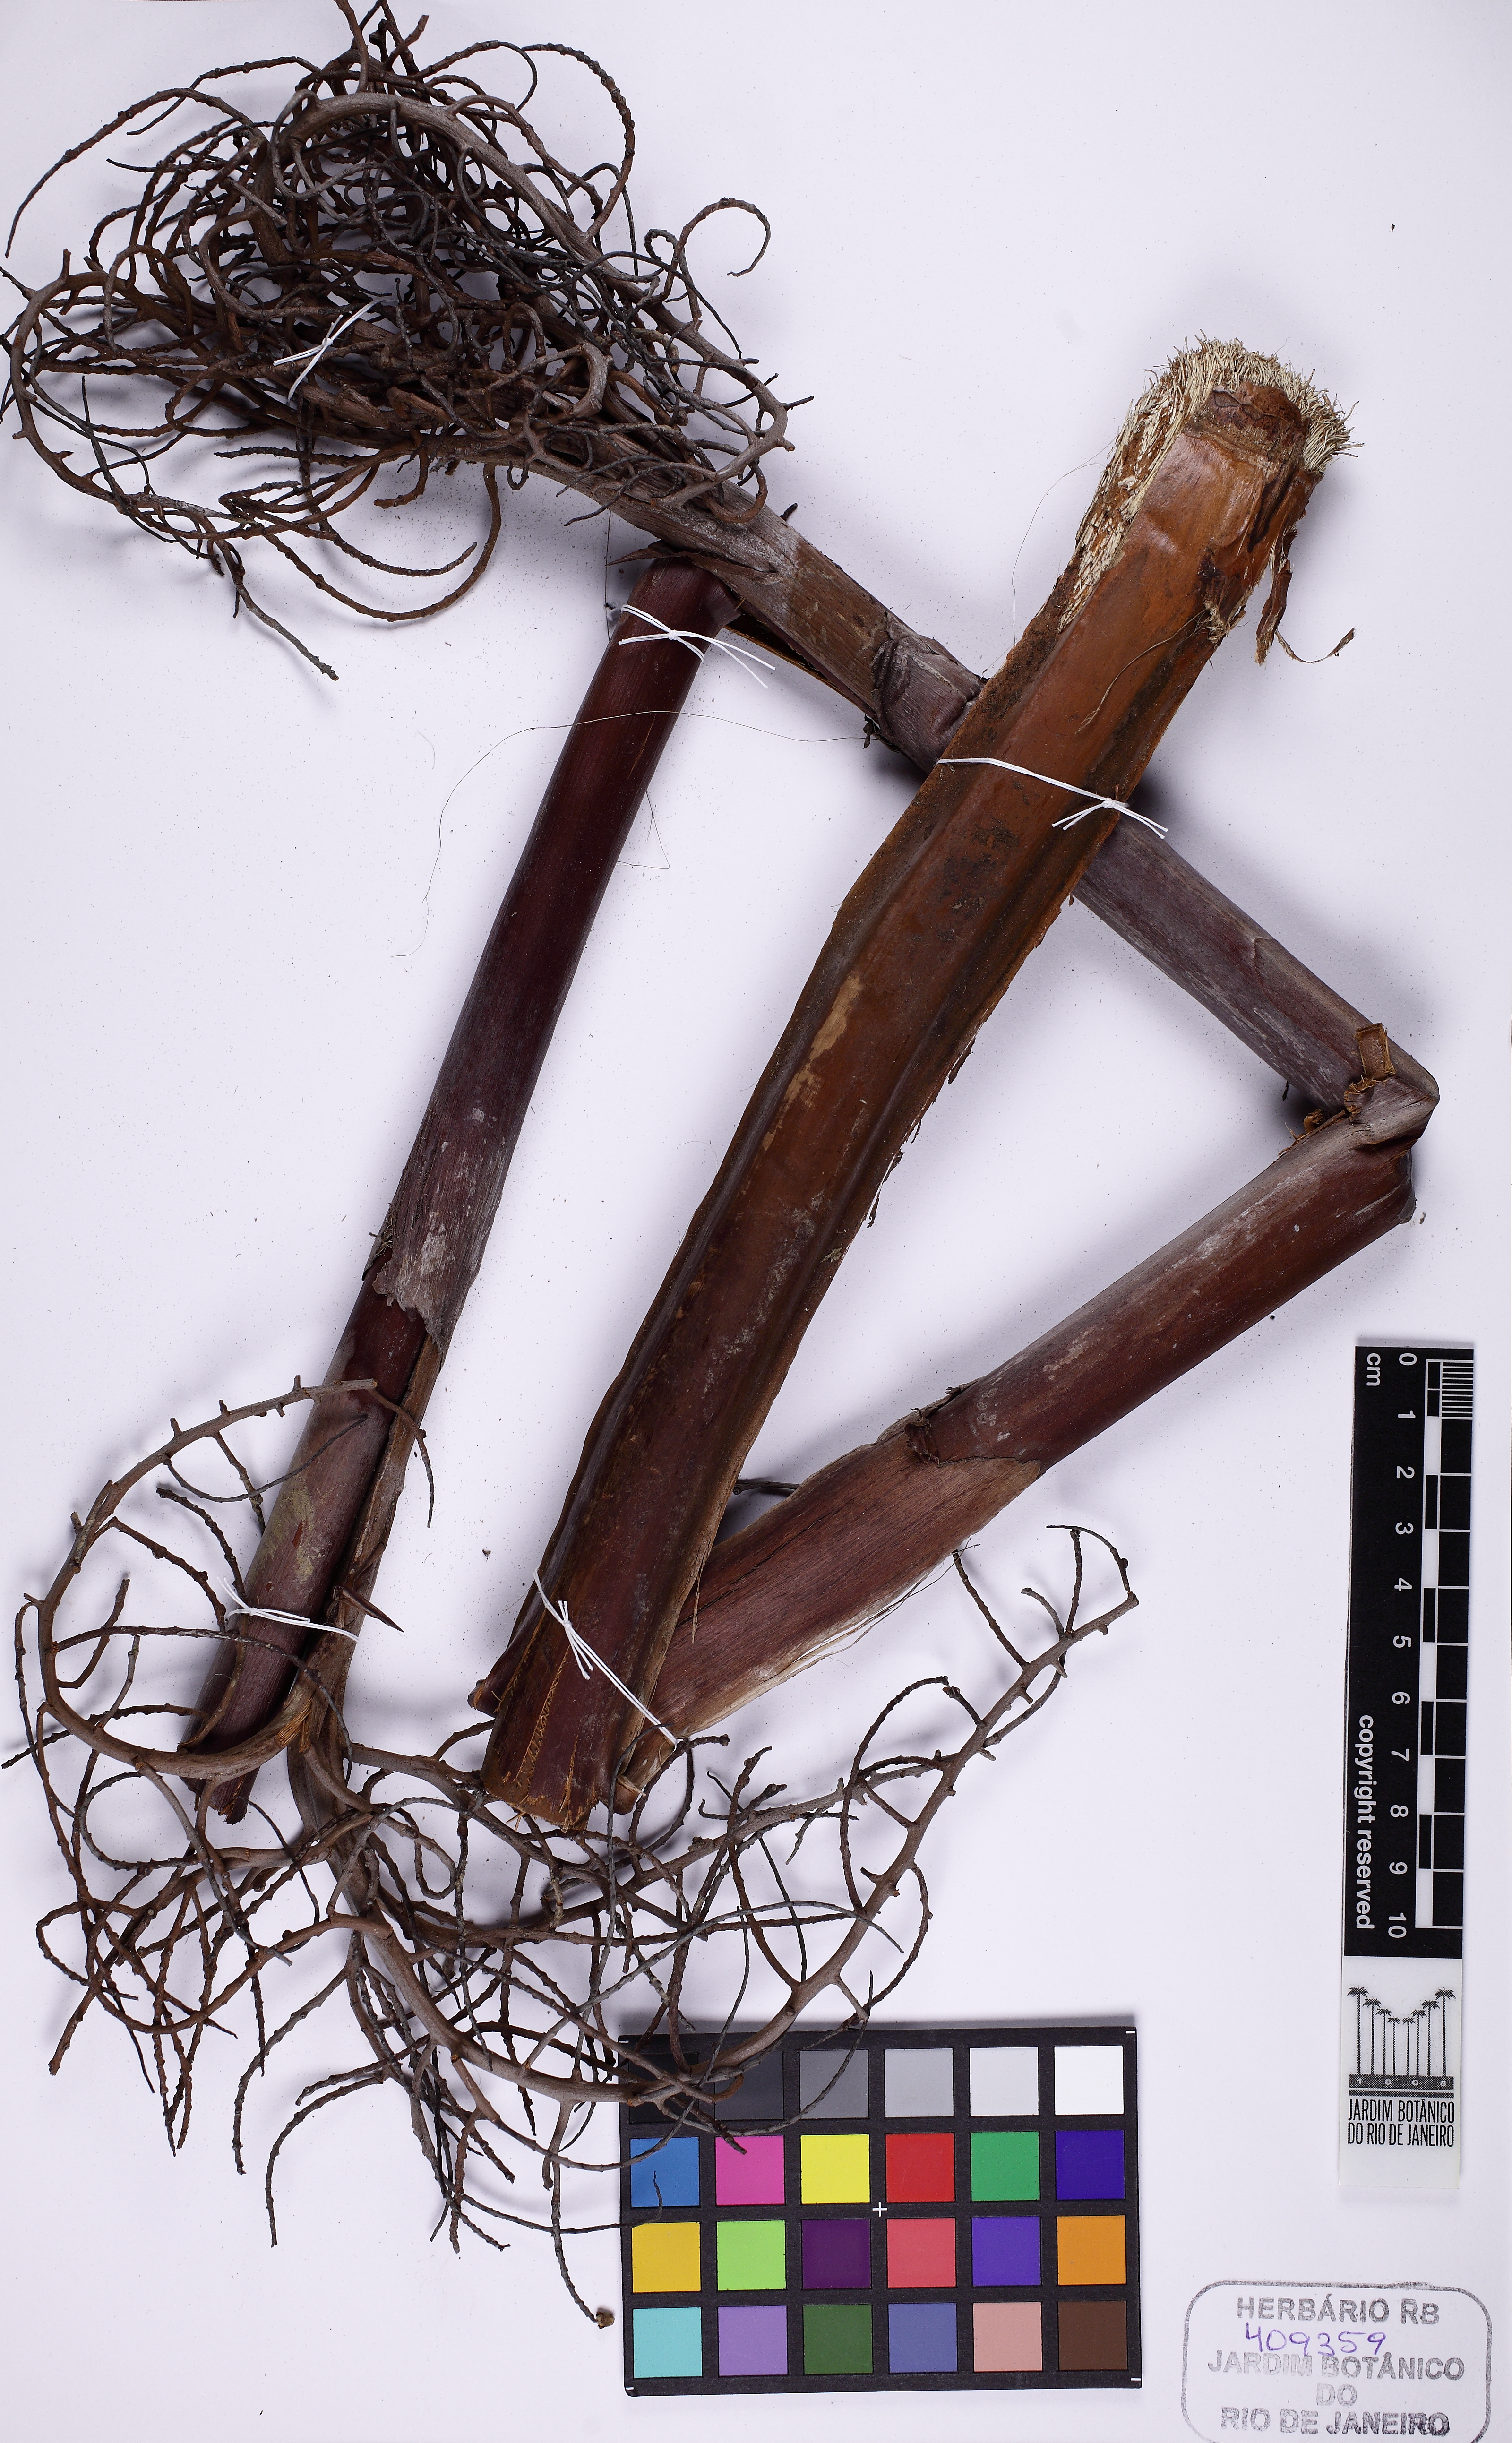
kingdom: Plantae
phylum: Tracheophyta
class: Liliopsida
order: Arecales
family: Arecaceae
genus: Saribus
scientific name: Saribus rotundifolius
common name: Palm
